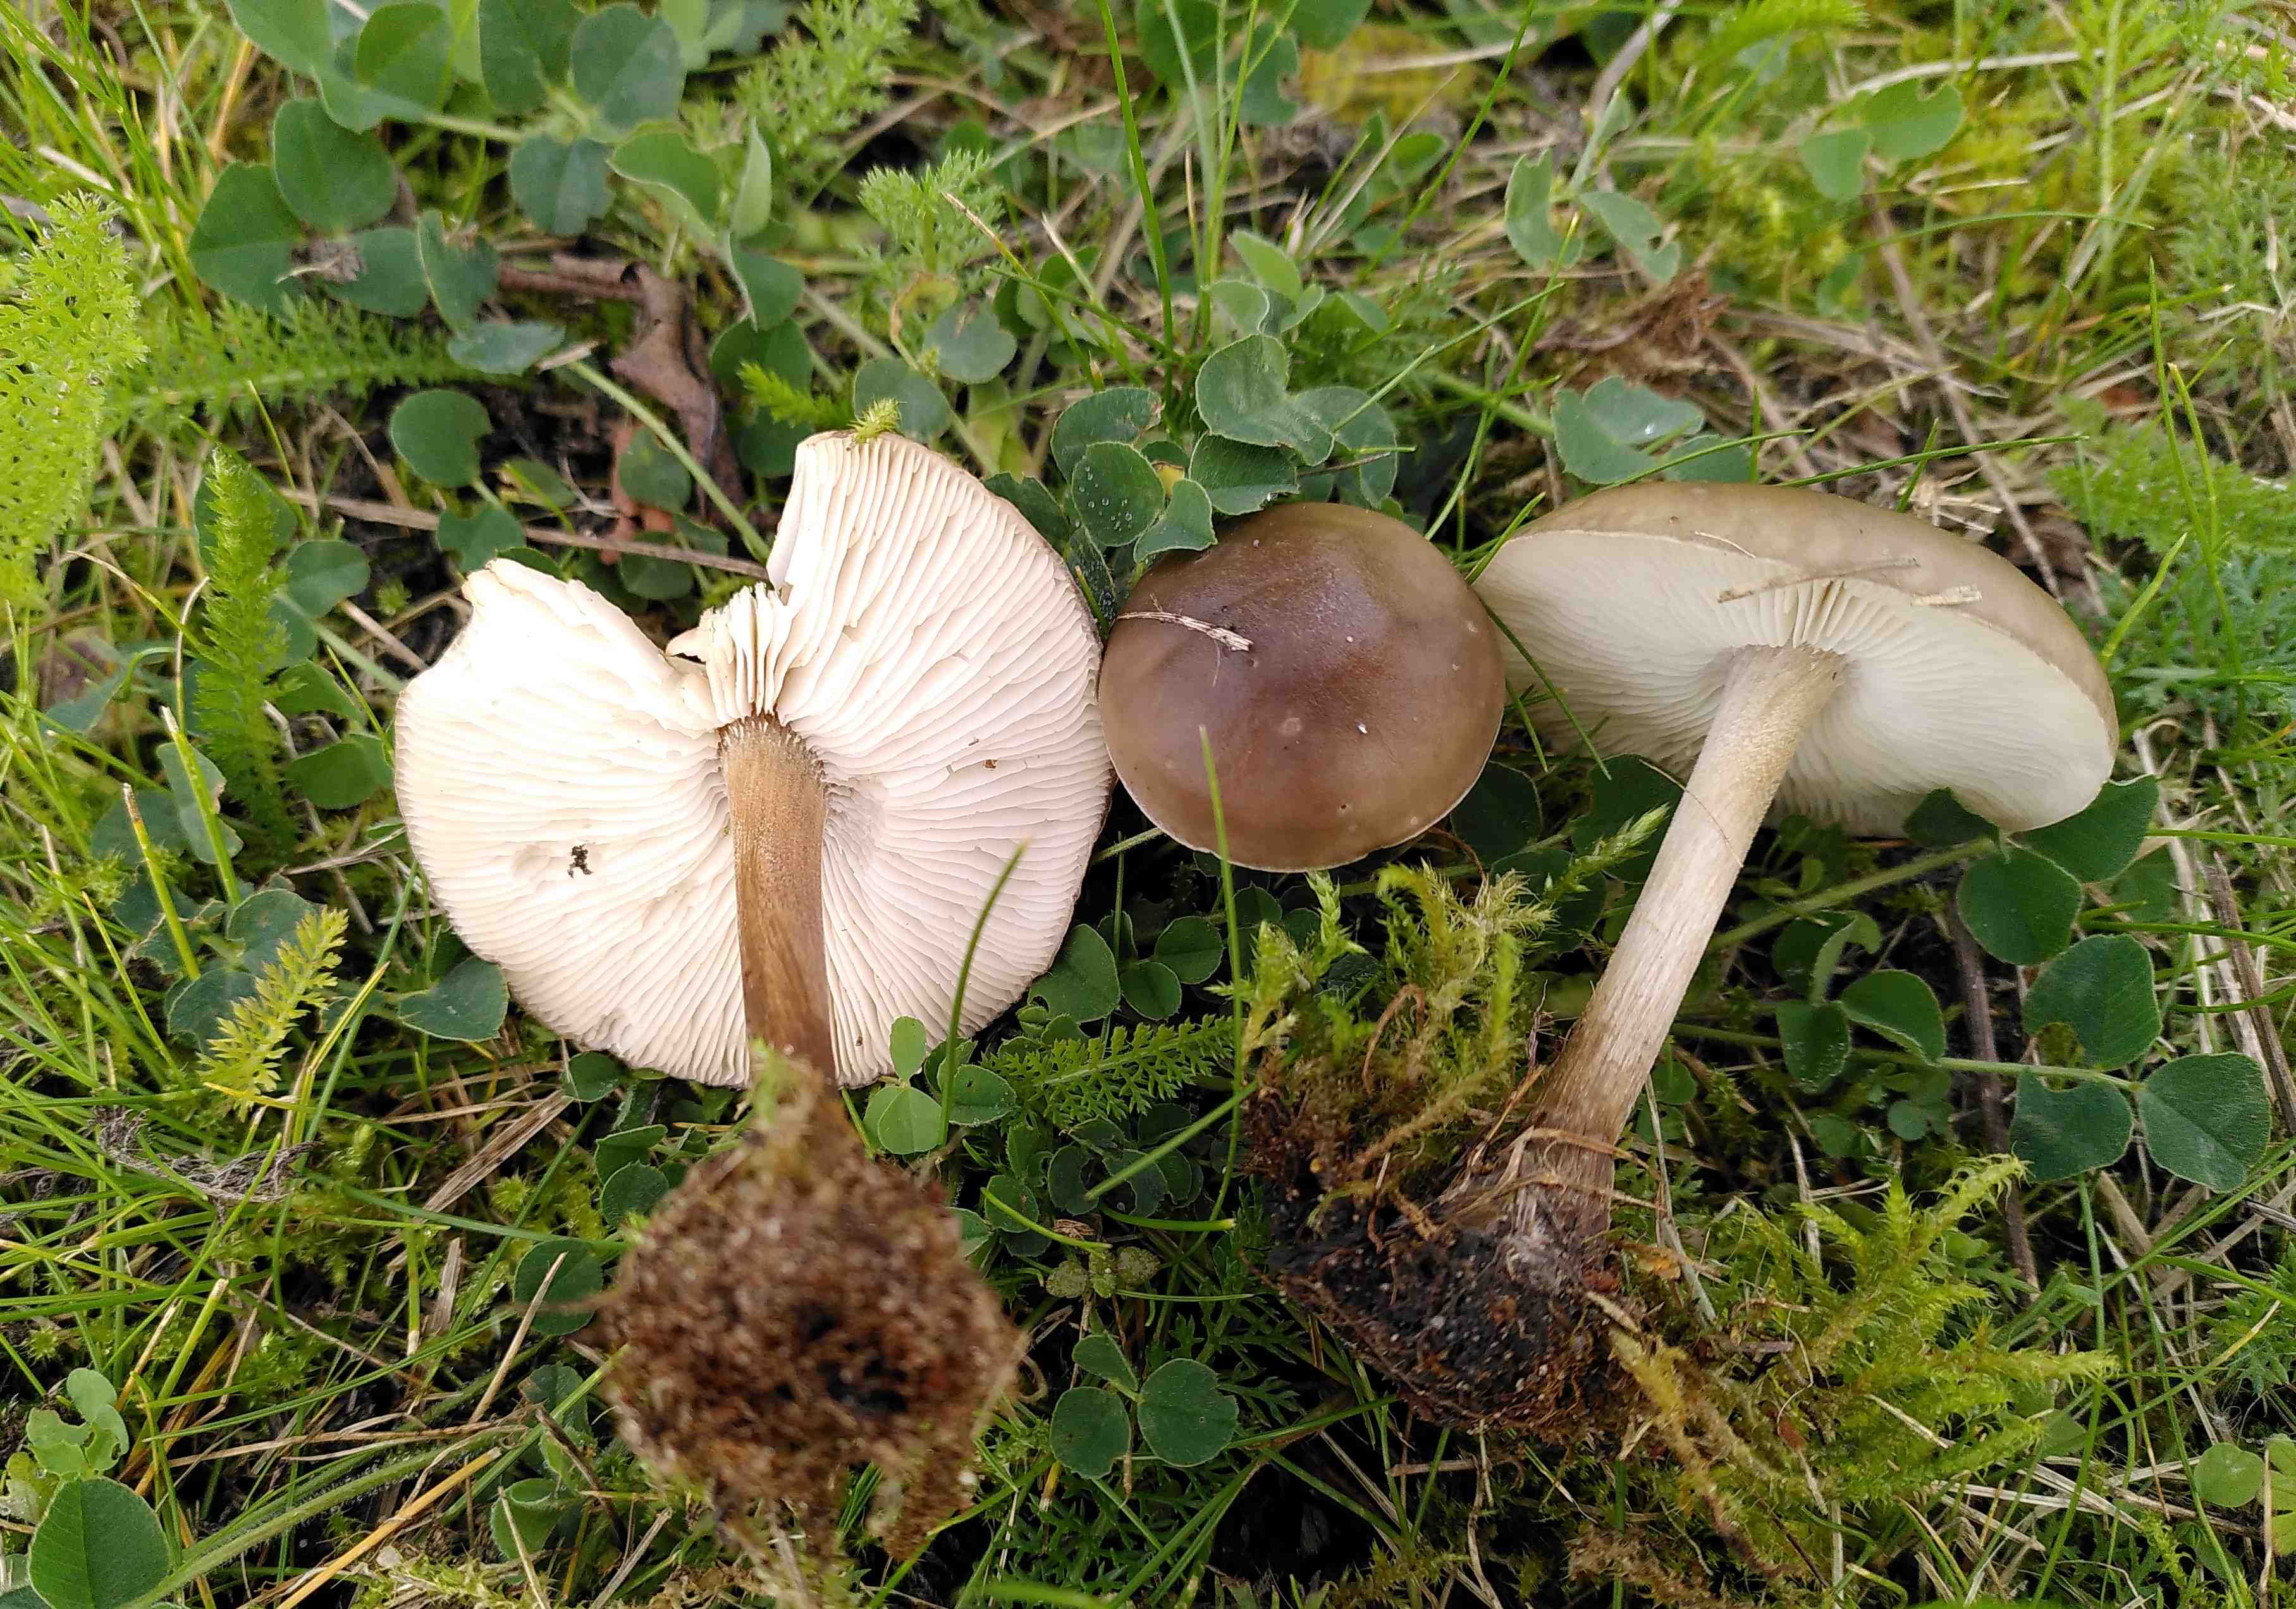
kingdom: Fungi
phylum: Basidiomycota
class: Agaricomycetes
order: Agaricales
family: Tricholomataceae
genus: Melanoleuca
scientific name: Melanoleuca
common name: munkehat
